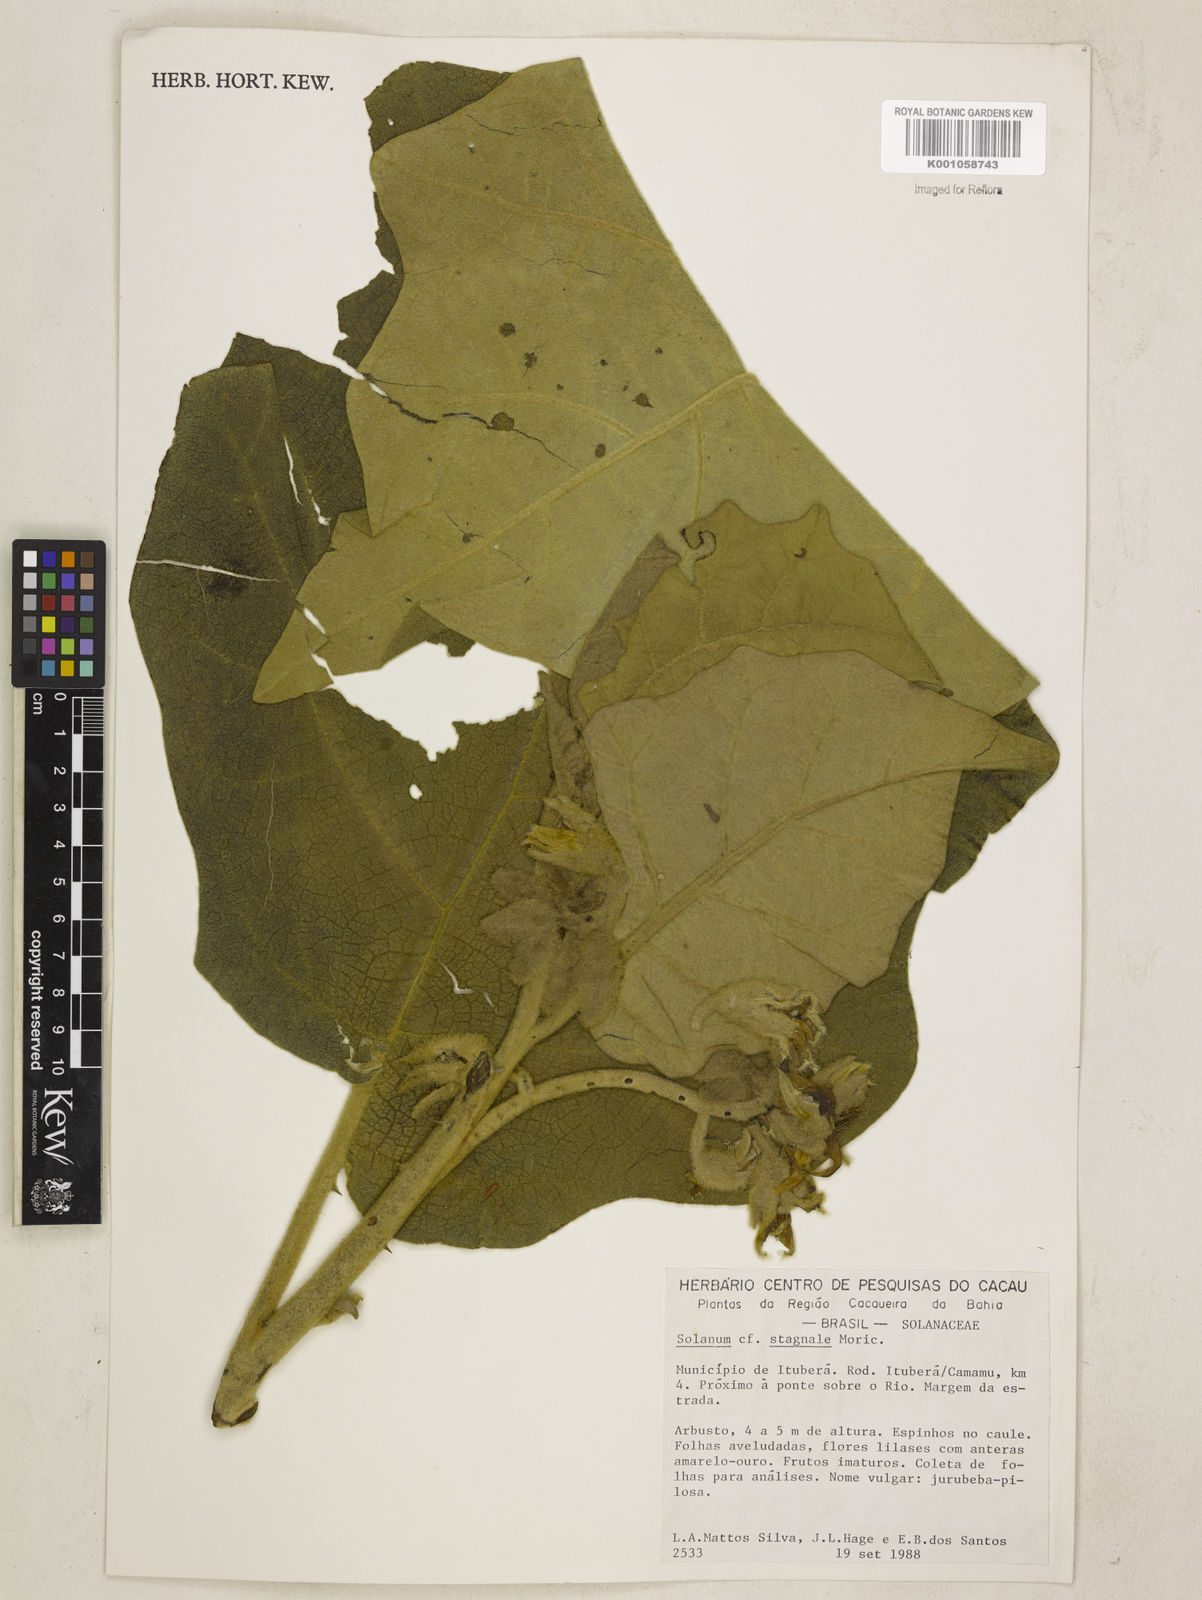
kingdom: Plantae
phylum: Tracheophyta
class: Magnoliopsida
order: Solanales
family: Solanaceae
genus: Solanum
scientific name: Solanum stagnale
